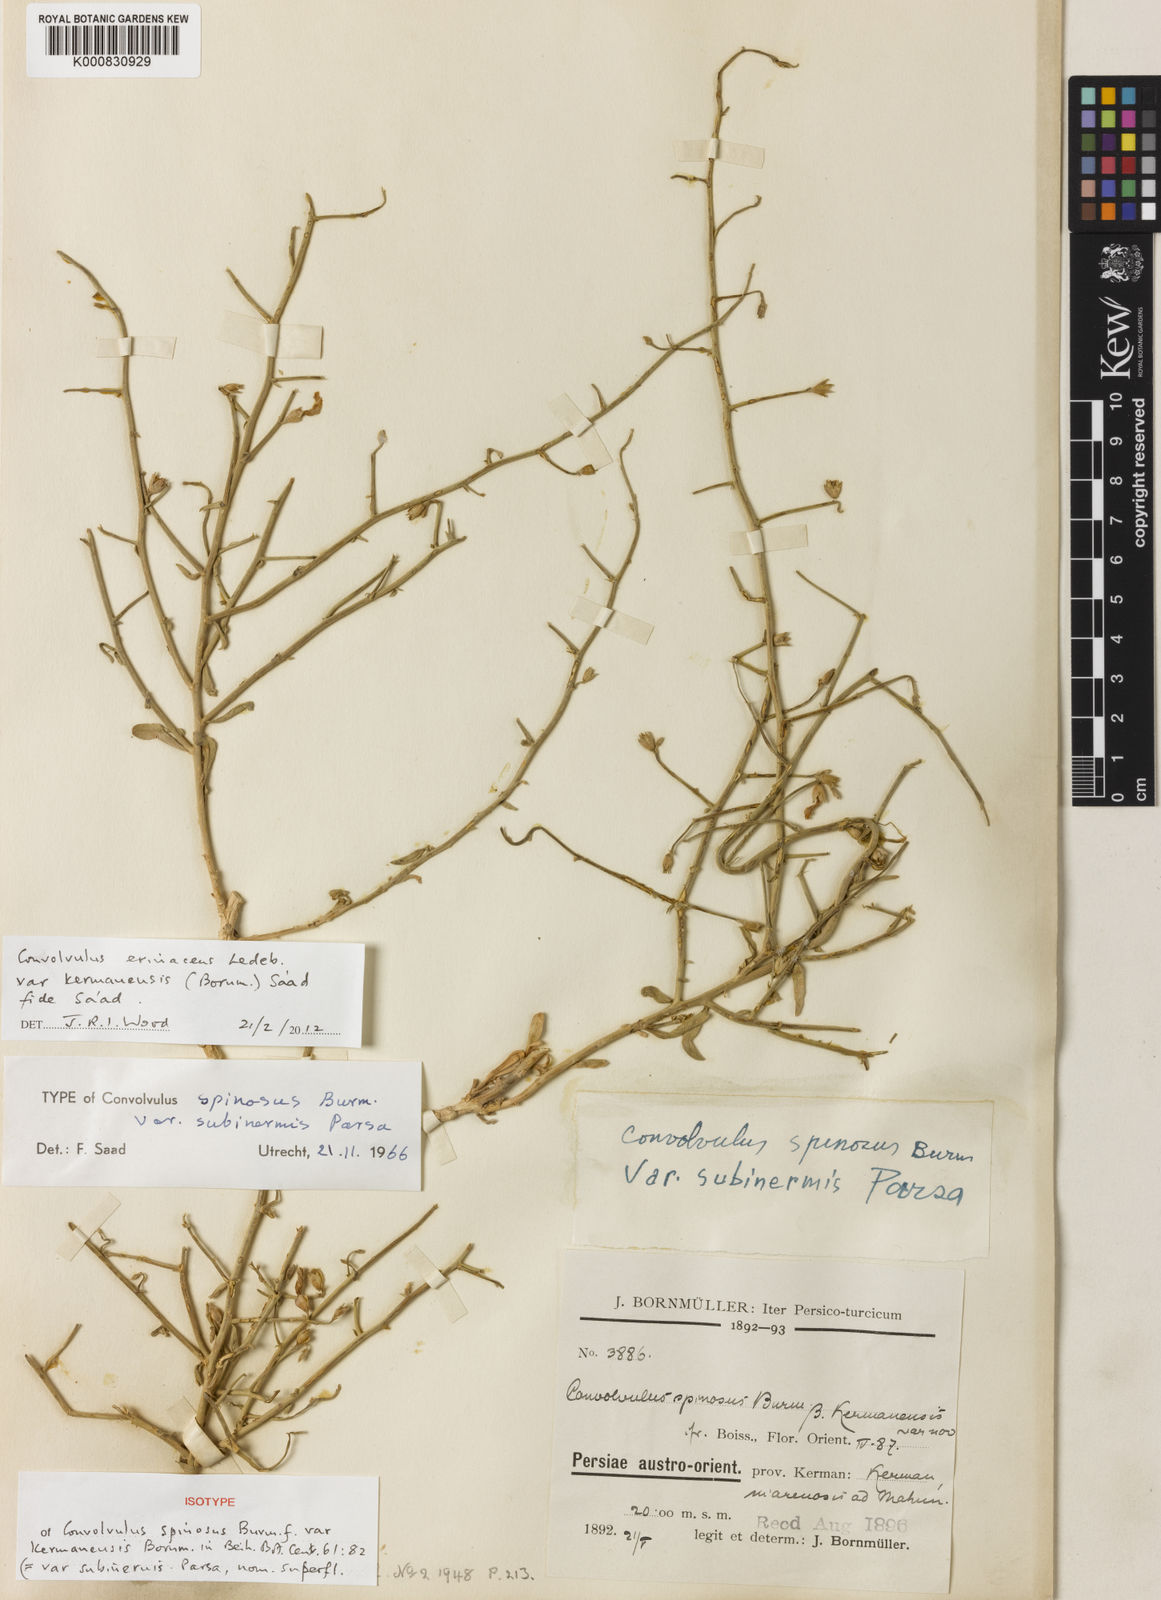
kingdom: Plantae
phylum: Tracheophyta
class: Magnoliopsida
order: Solanales
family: Convolvulaceae
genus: Convolvulus
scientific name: Convolvulus erinaceus
